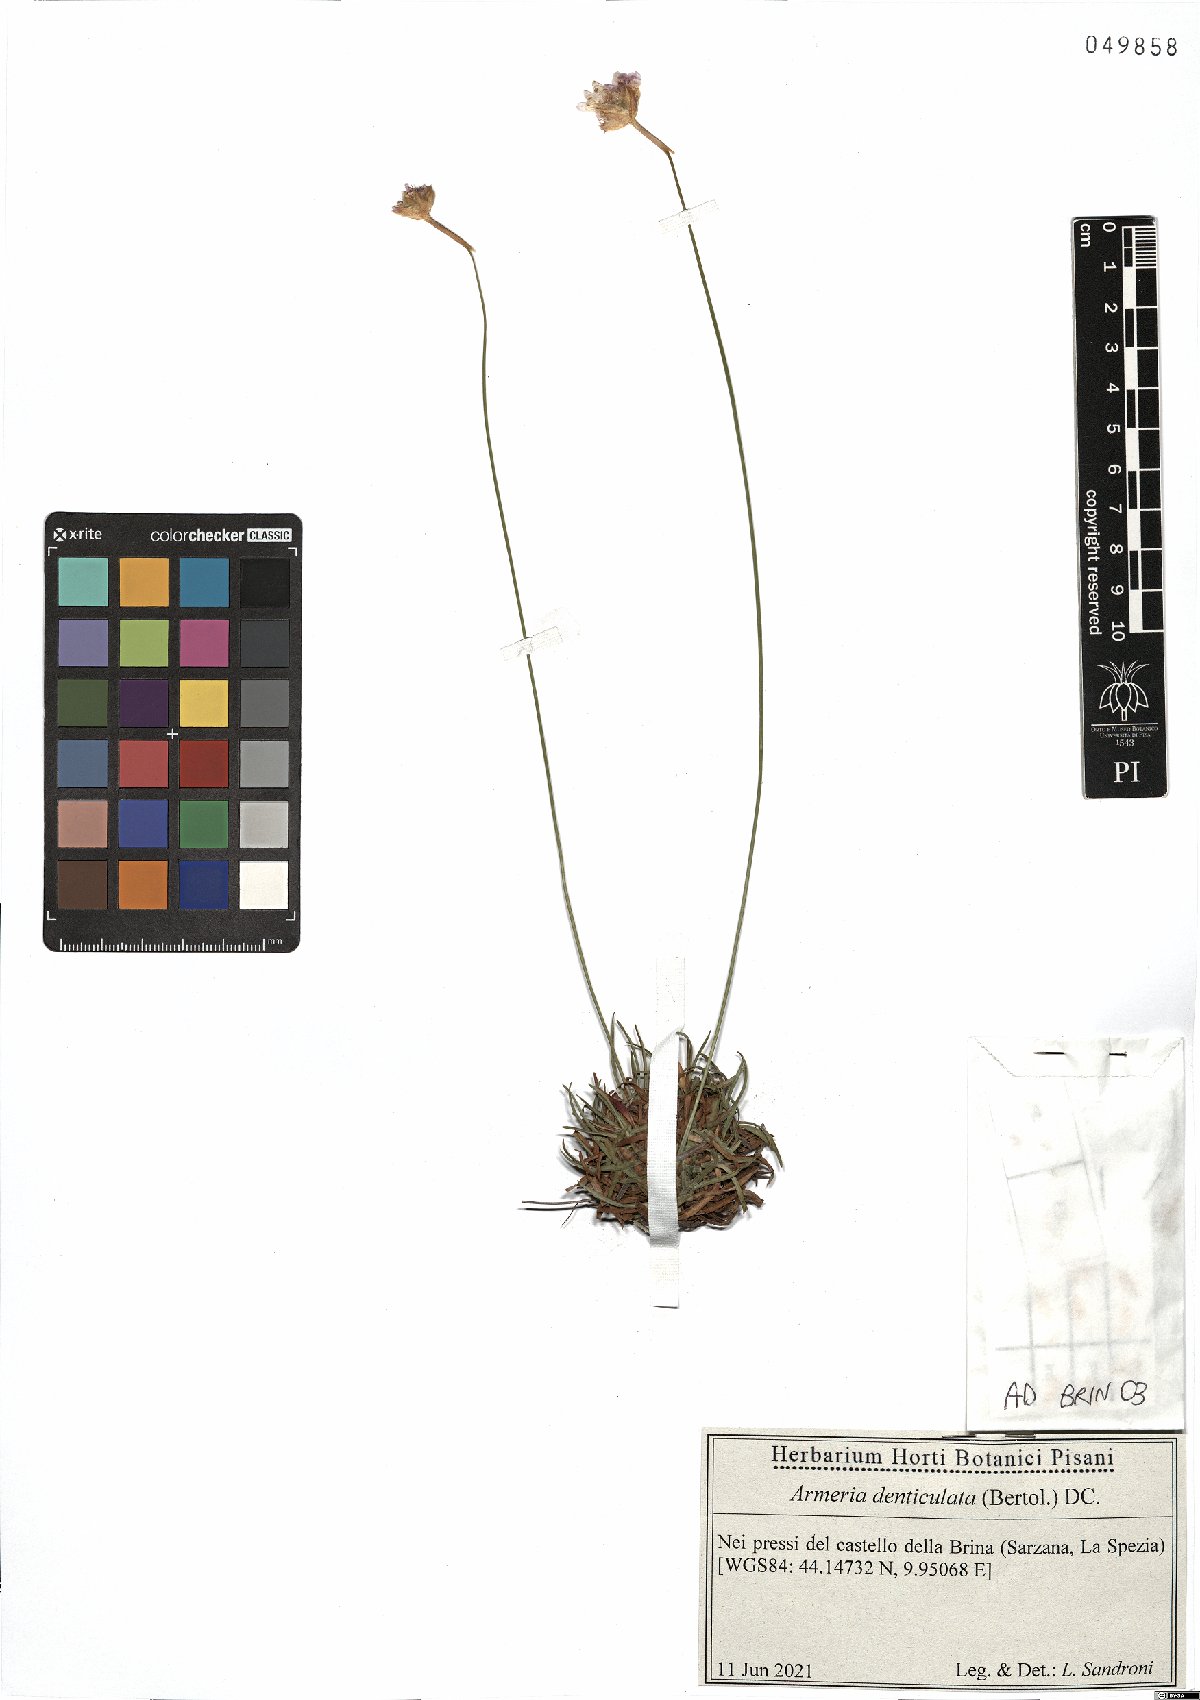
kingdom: Plantae
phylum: Tracheophyta
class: Magnoliopsida
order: Caryophyllales
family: Plumbaginaceae
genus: Armeria
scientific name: Armeria denticulata
